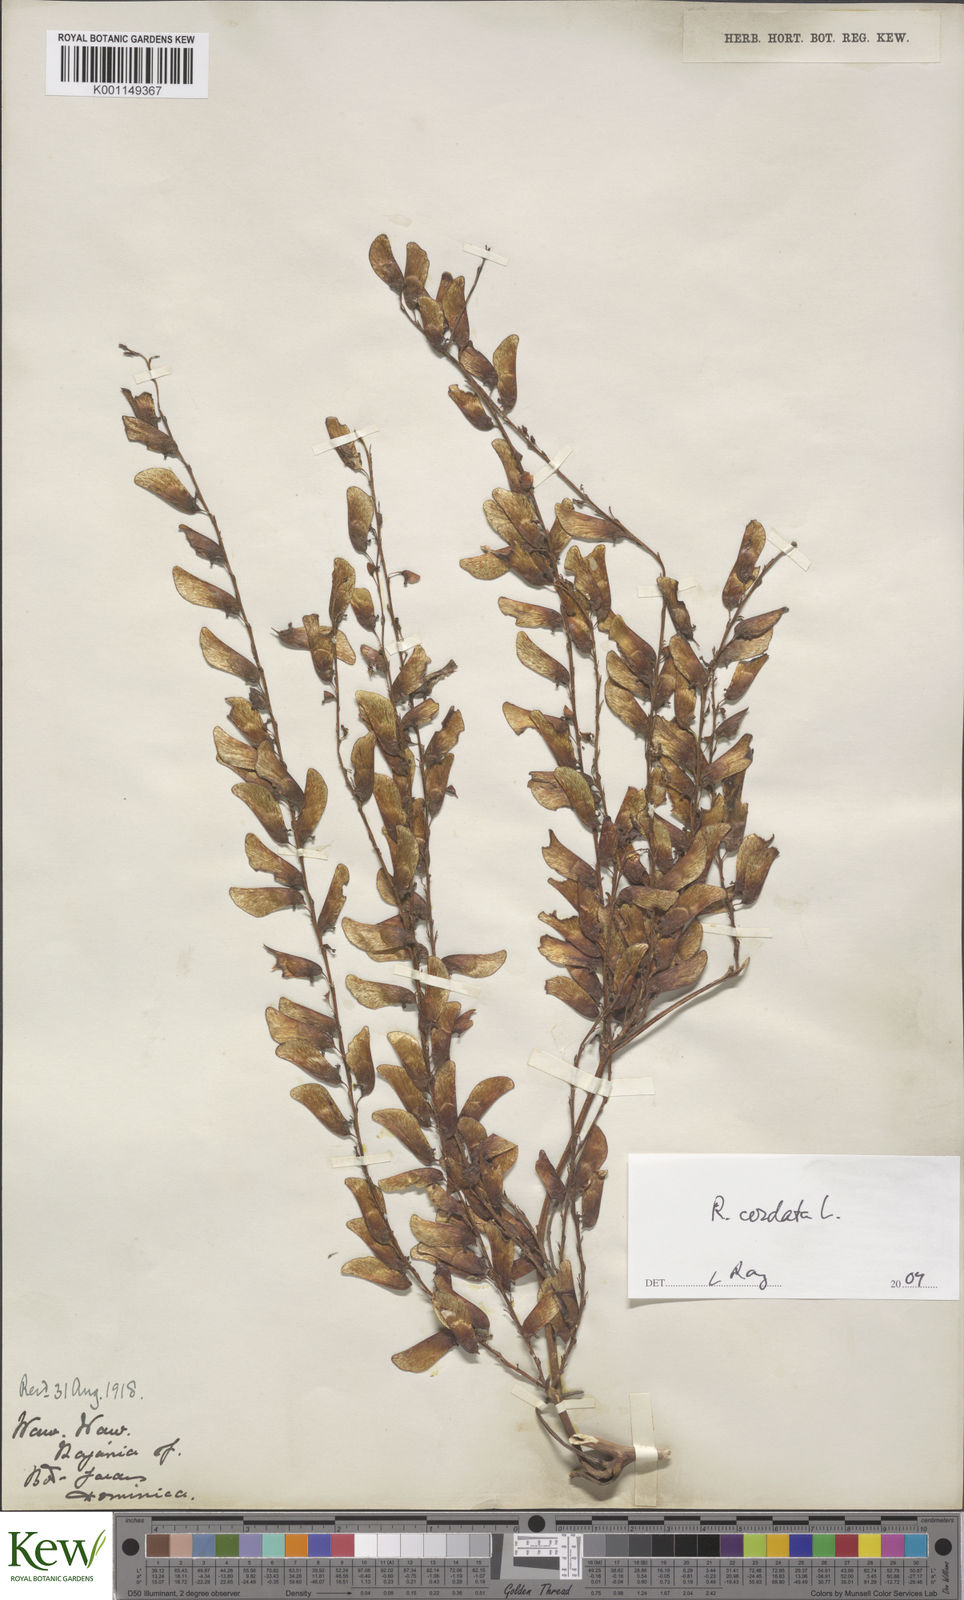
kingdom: Plantae
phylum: Tracheophyta
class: Liliopsida
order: Dioscoreales
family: Dioscoreaceae
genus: Dioscorea
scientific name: Dioscorea
